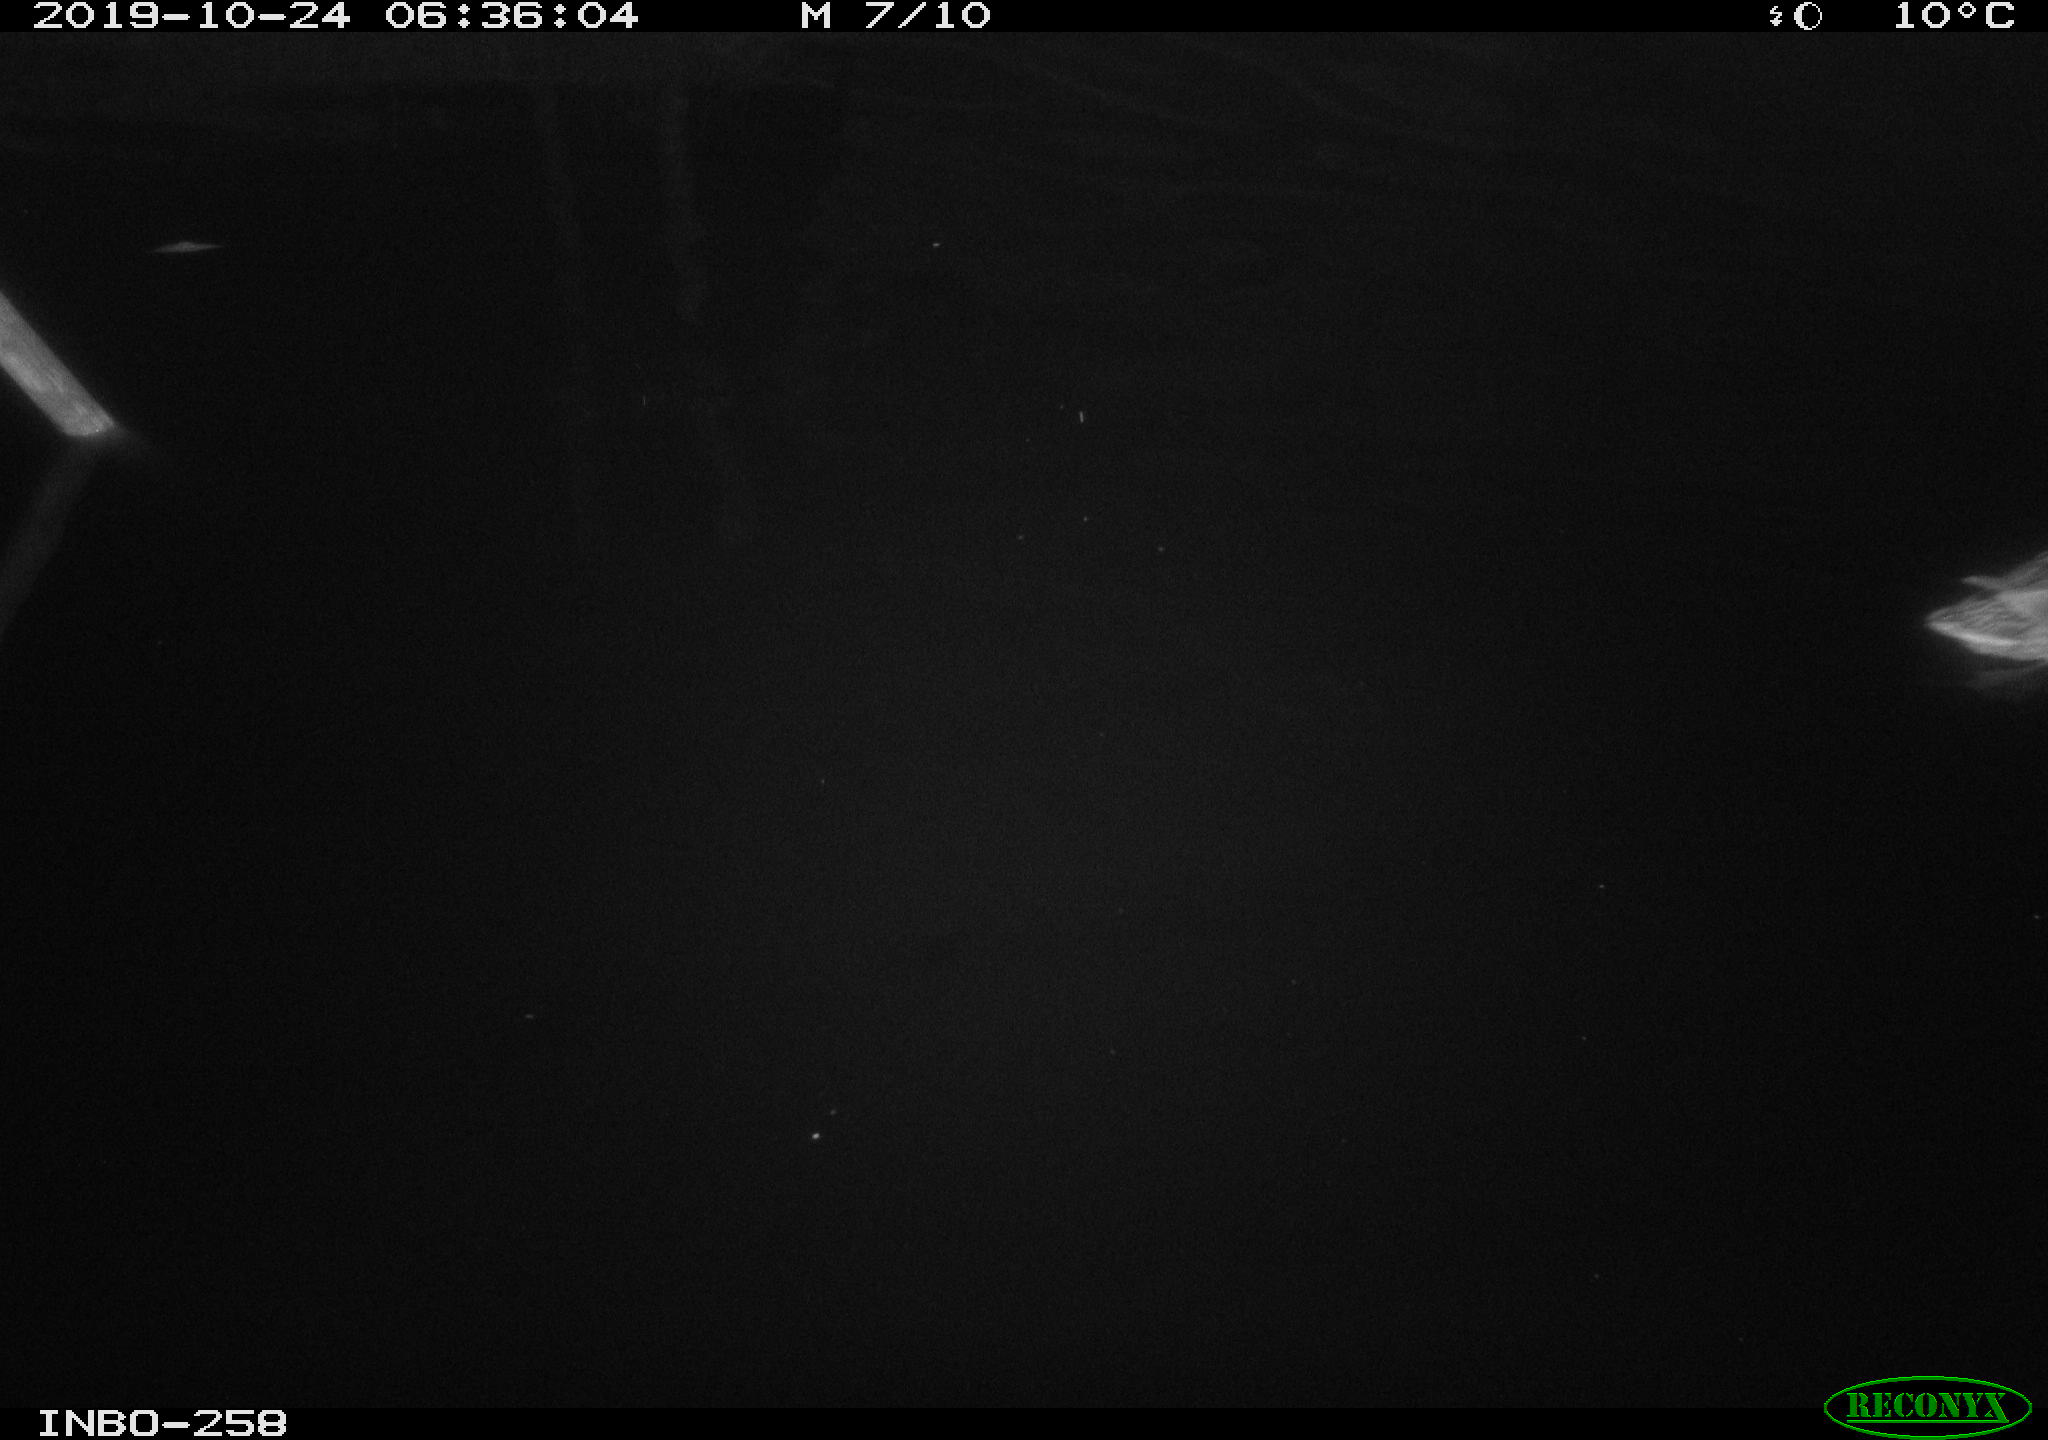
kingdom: Animalia
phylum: Chordata
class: Aves
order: Anseriformes
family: Anatidae
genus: Anas
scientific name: Anas platyrhynchos
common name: Mallard
